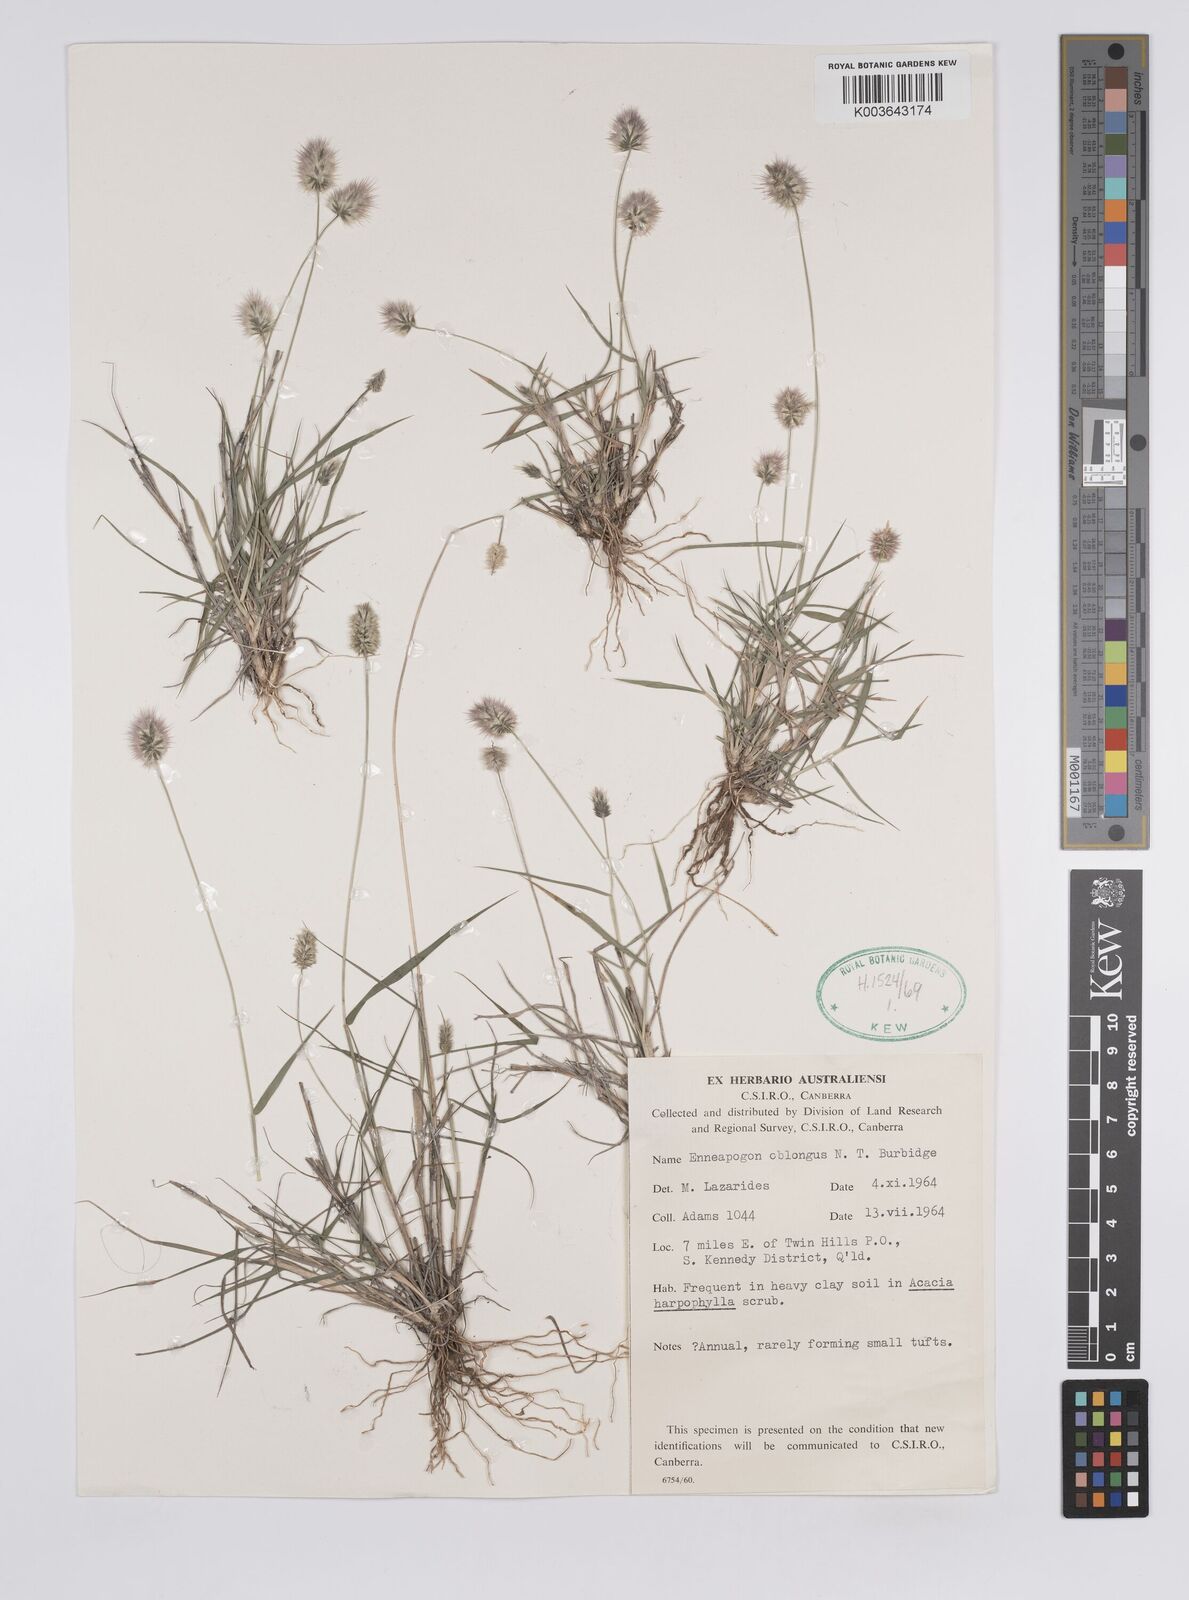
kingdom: Plantae
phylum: Tracheophyta
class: Liliopsida
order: Poales
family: Poaceae
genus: Enneapogon
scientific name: Enneapogon lindleyanus
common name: Conetop nineawn
